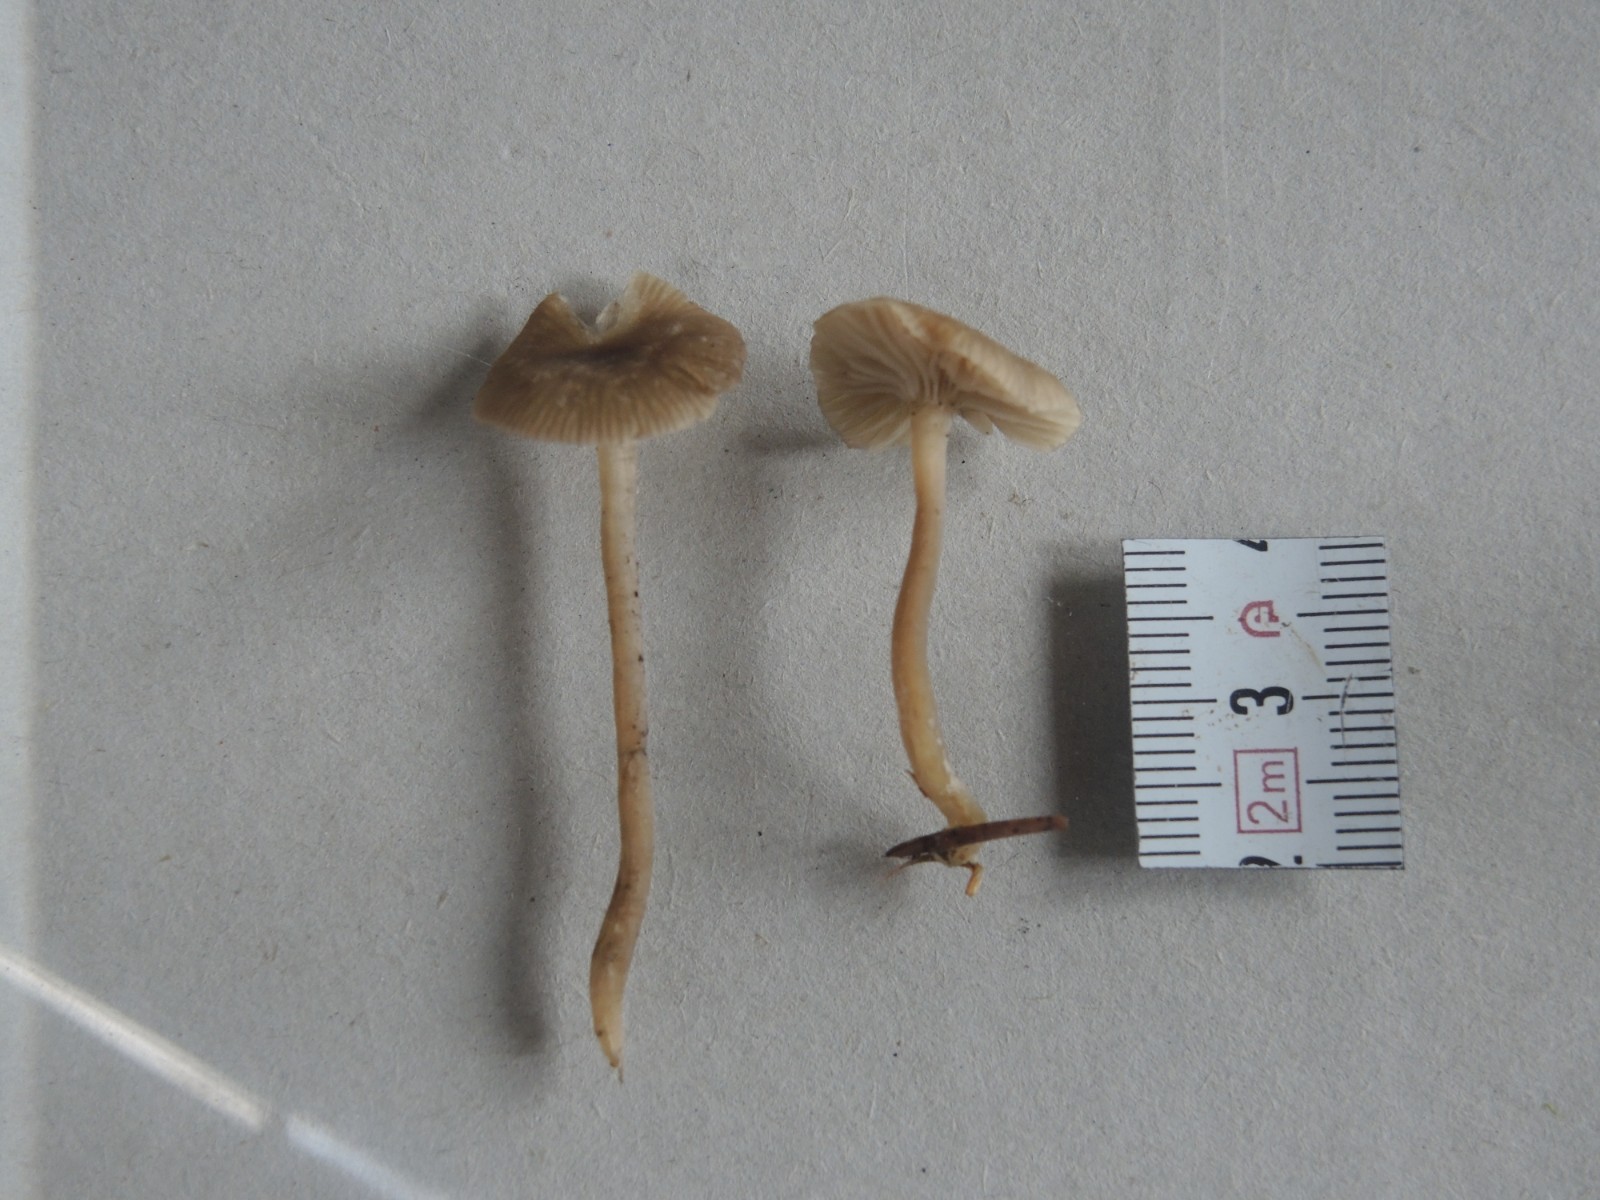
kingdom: Fungi
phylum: Basidiomycota
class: Agaricomycetes
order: Agaricales
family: Tricholomataceae
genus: Omphaliaster
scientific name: Omphaliaster asterosporus
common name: narrehat
